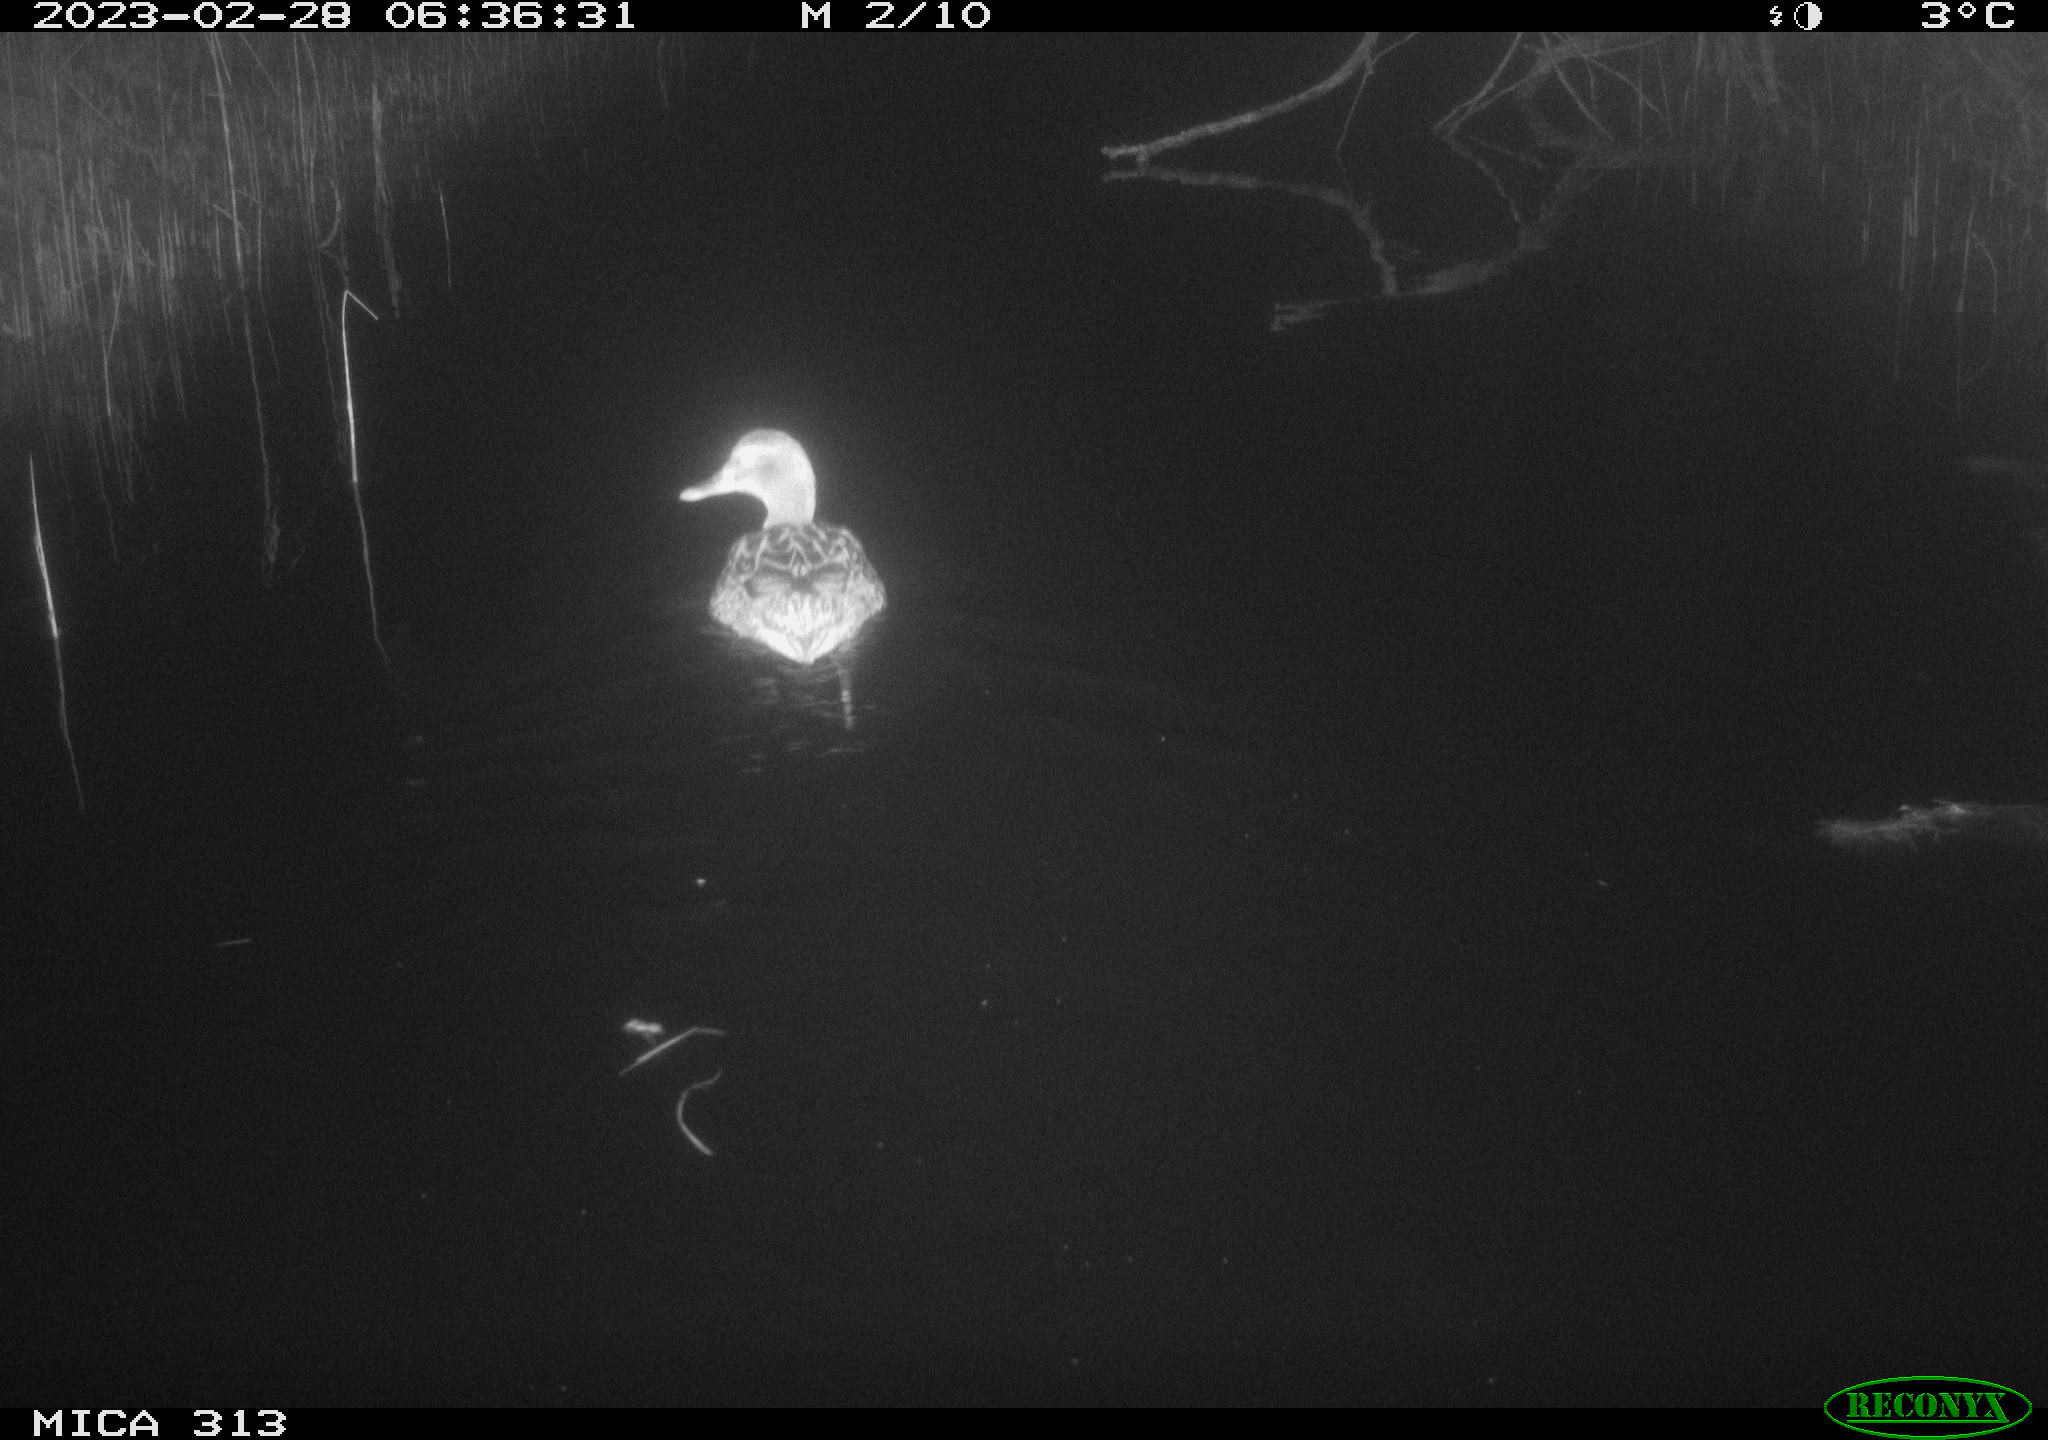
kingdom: Animalia
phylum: Chordata
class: Aves
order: Anseriformes
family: Anatidae
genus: Anas
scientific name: Anas
